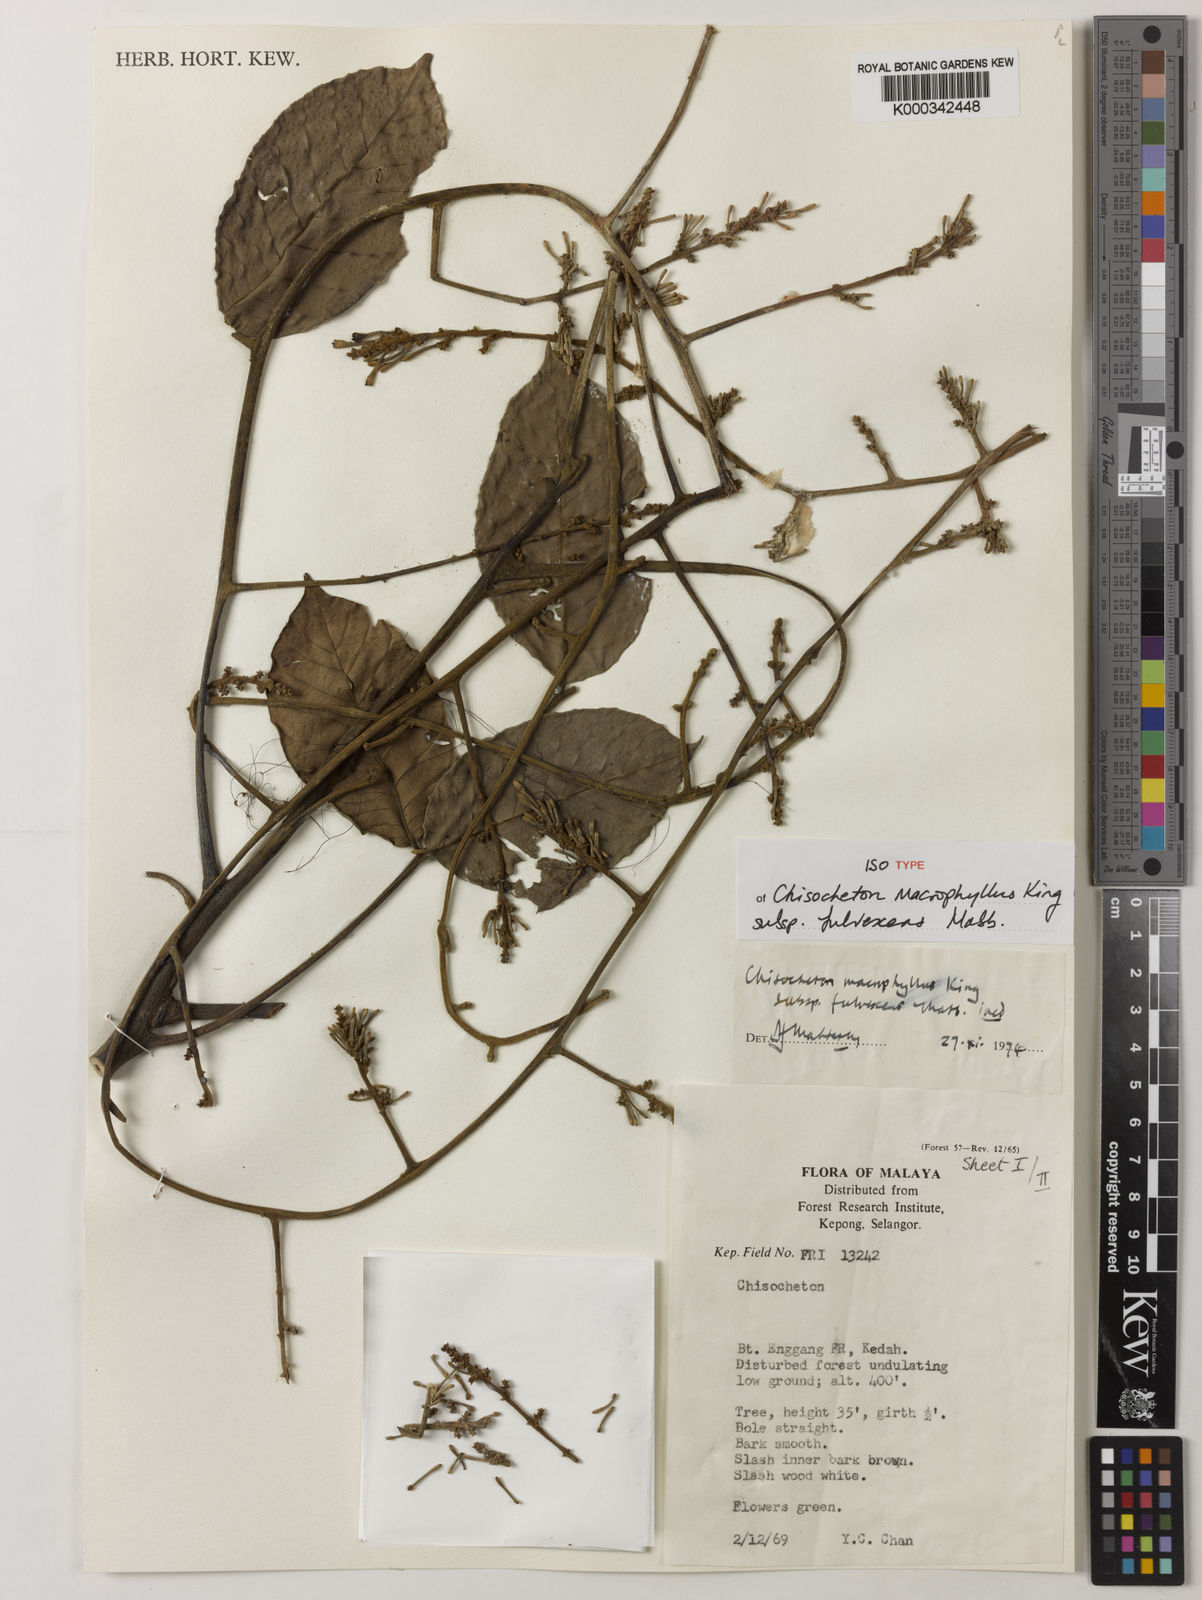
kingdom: Plantae
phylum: Tracheophyta
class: Magnoliopsida
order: Sapindales
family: Meliaceae
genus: Chisocheton
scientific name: Chisocheton macrophyllus
